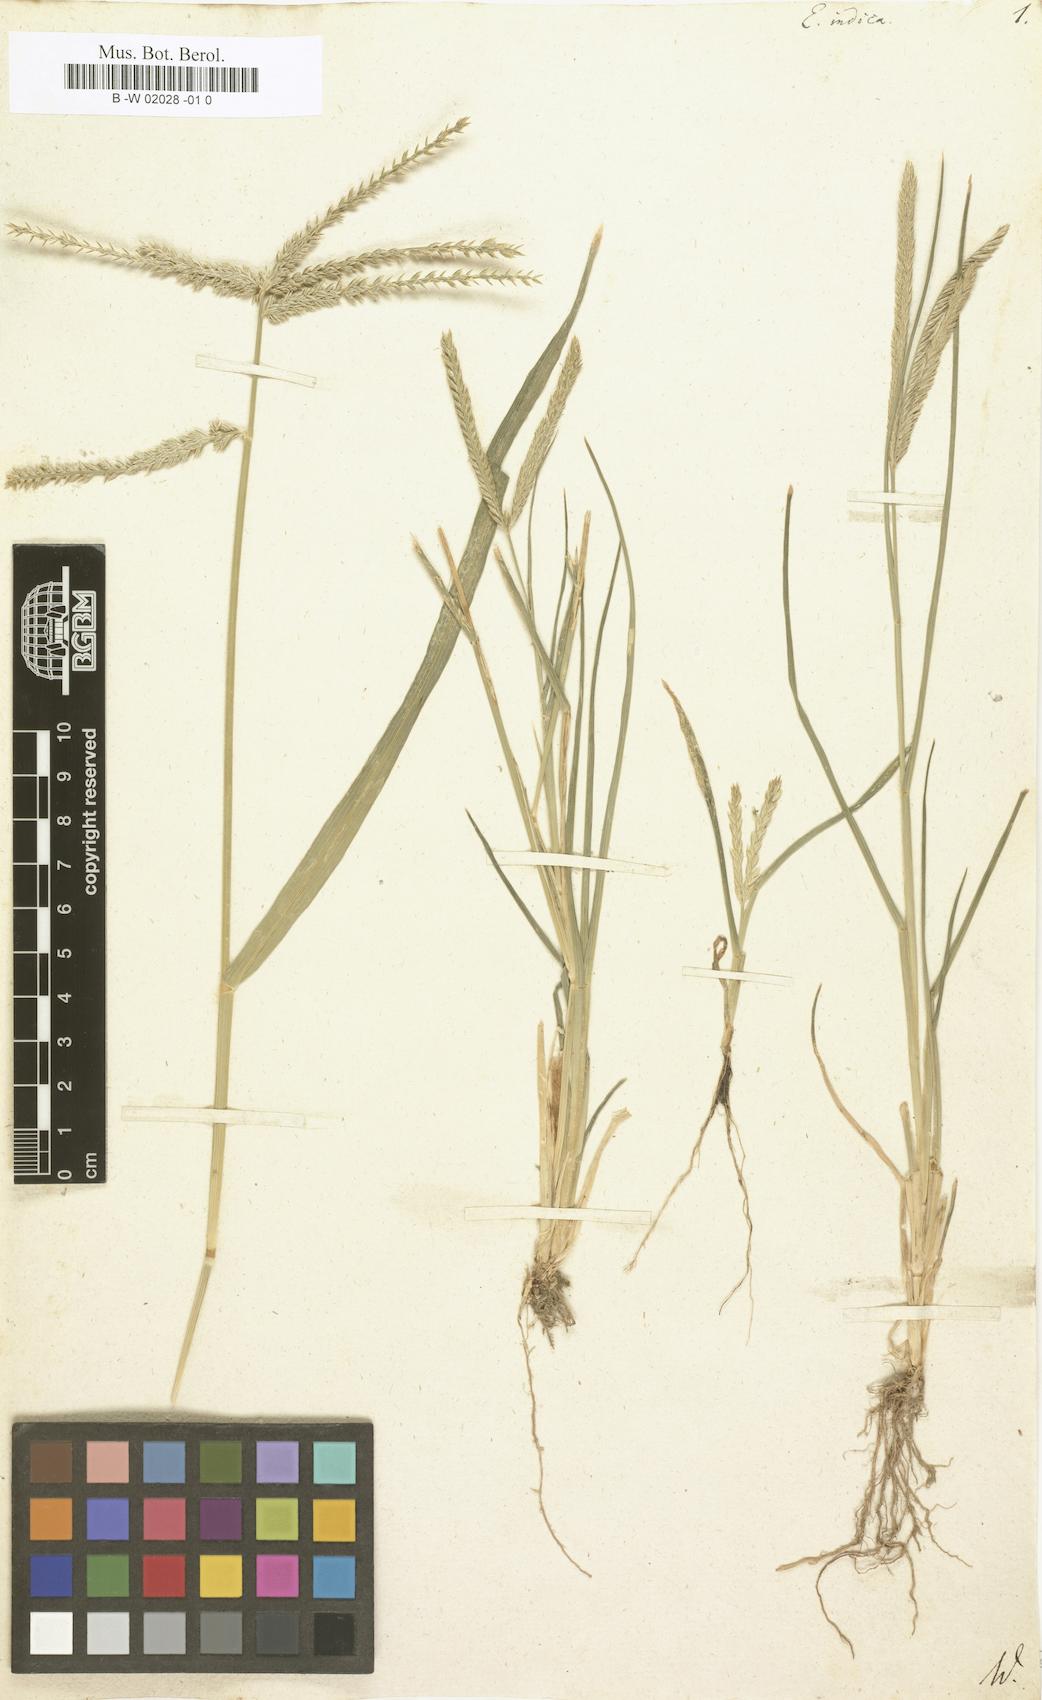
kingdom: Plantae
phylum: Tracheophyta
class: Liliopsida
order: Poales
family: Poaceae
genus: Eleusine
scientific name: Eleusine indica
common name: Yard-grass
